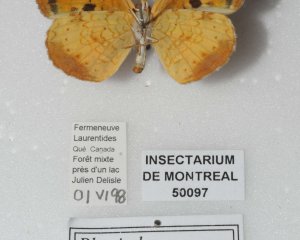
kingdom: Animalia
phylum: Arthropoda
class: Insecta
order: Lepidoptera
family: Nymphalidae
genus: Phyciodes
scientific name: Phyciodes tharos
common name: Northern Crescent
